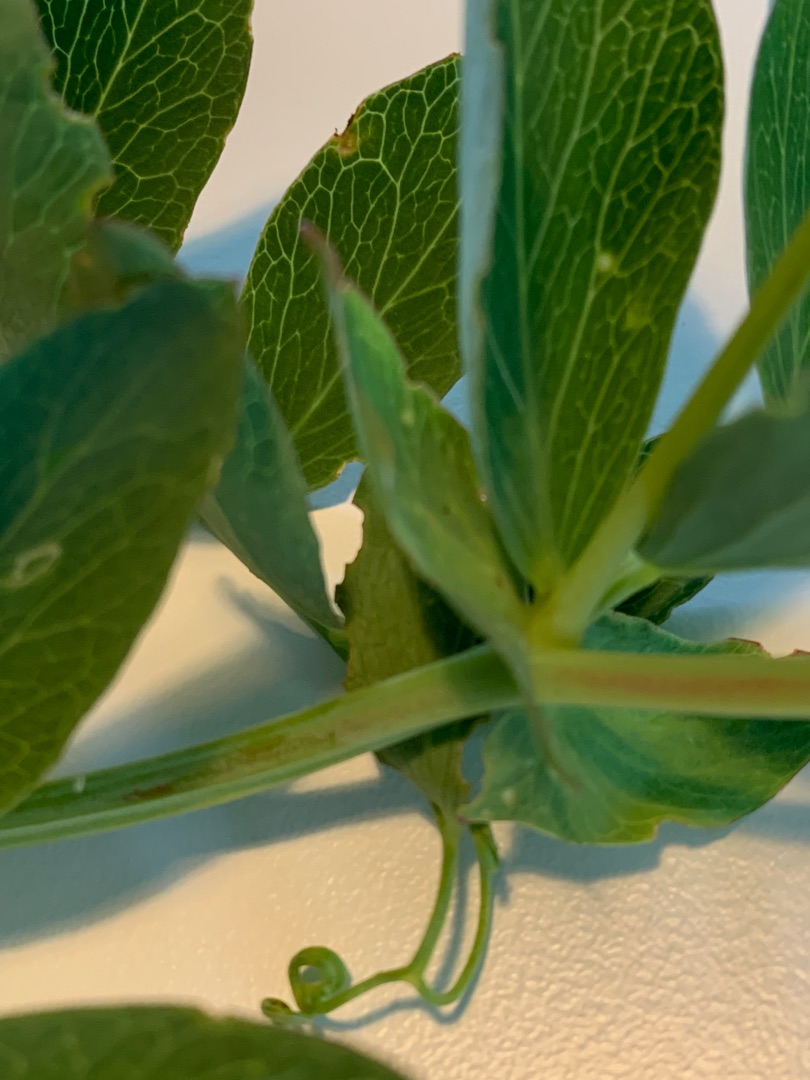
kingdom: Plantae
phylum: Tracheophyta
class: Magnoliopsida
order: Fabales
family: Fabaceae
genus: Lathyrus
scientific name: Lathyrus japonicus
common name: Strand-fladbælg
